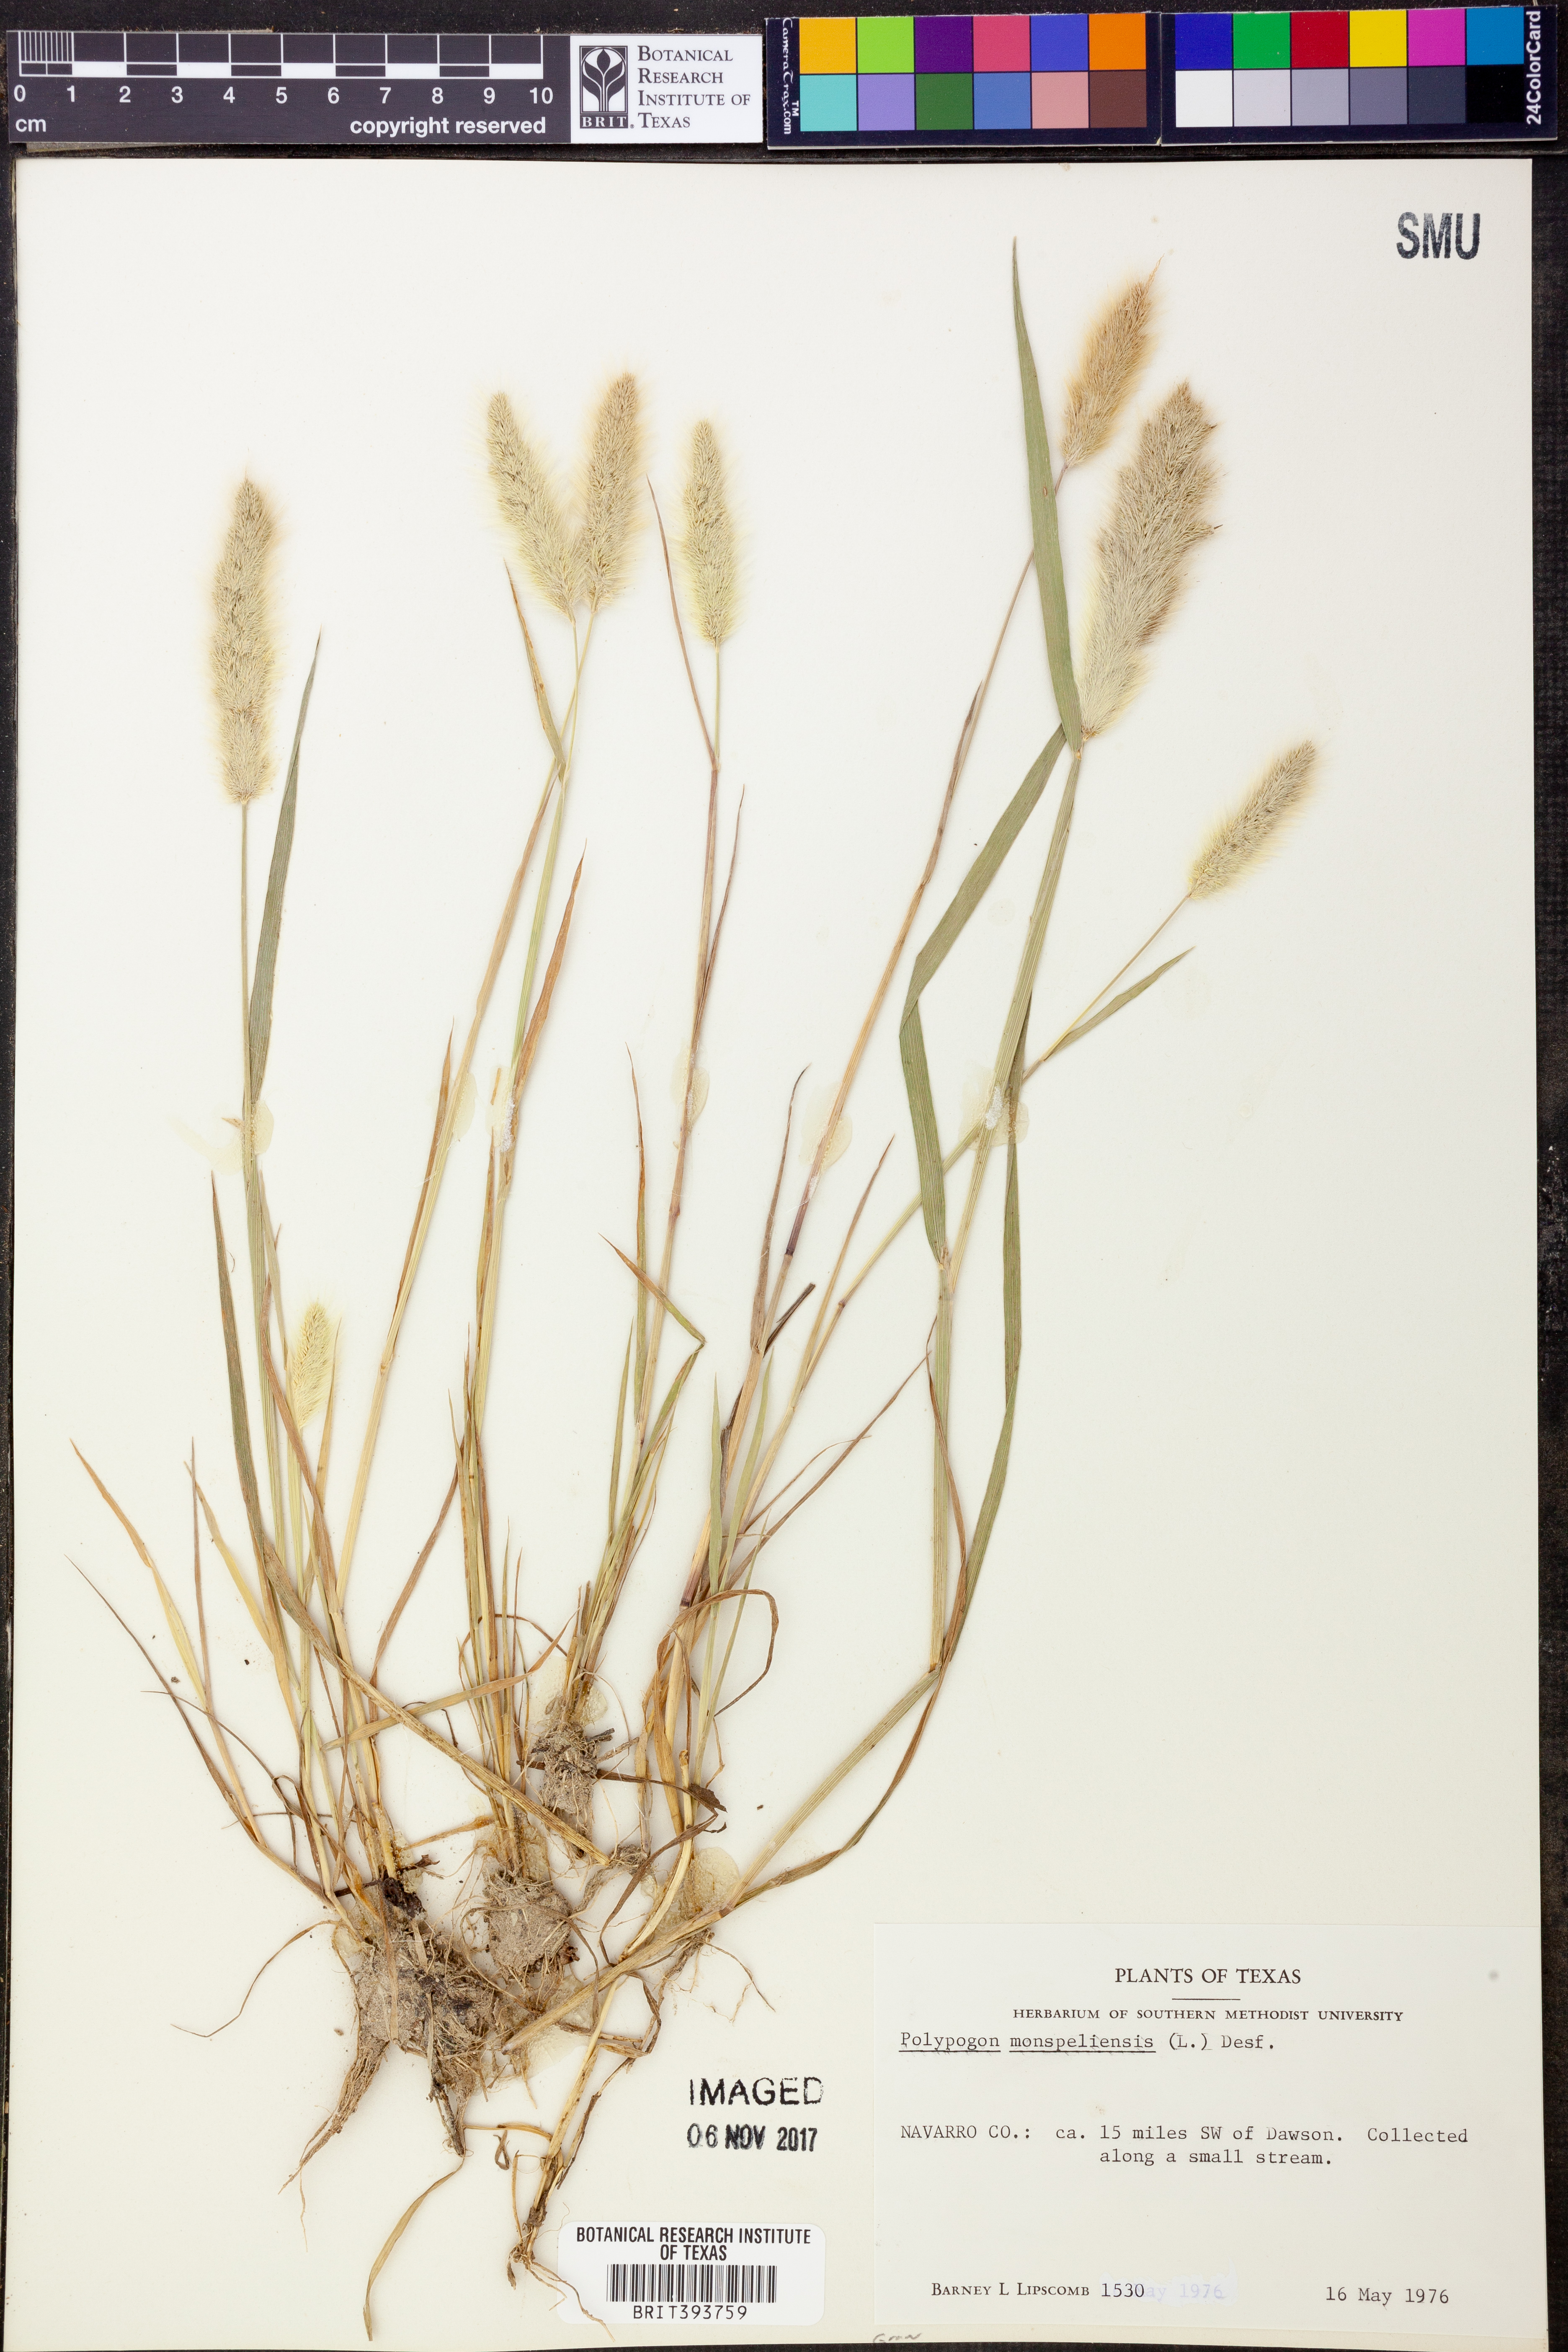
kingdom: Plantae
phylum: Tracheophyta
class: Liliopsida
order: Poales
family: Poaceae
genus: Polypogon
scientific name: Polypogon monspeliensis
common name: Annual rabbitsfoot grass
